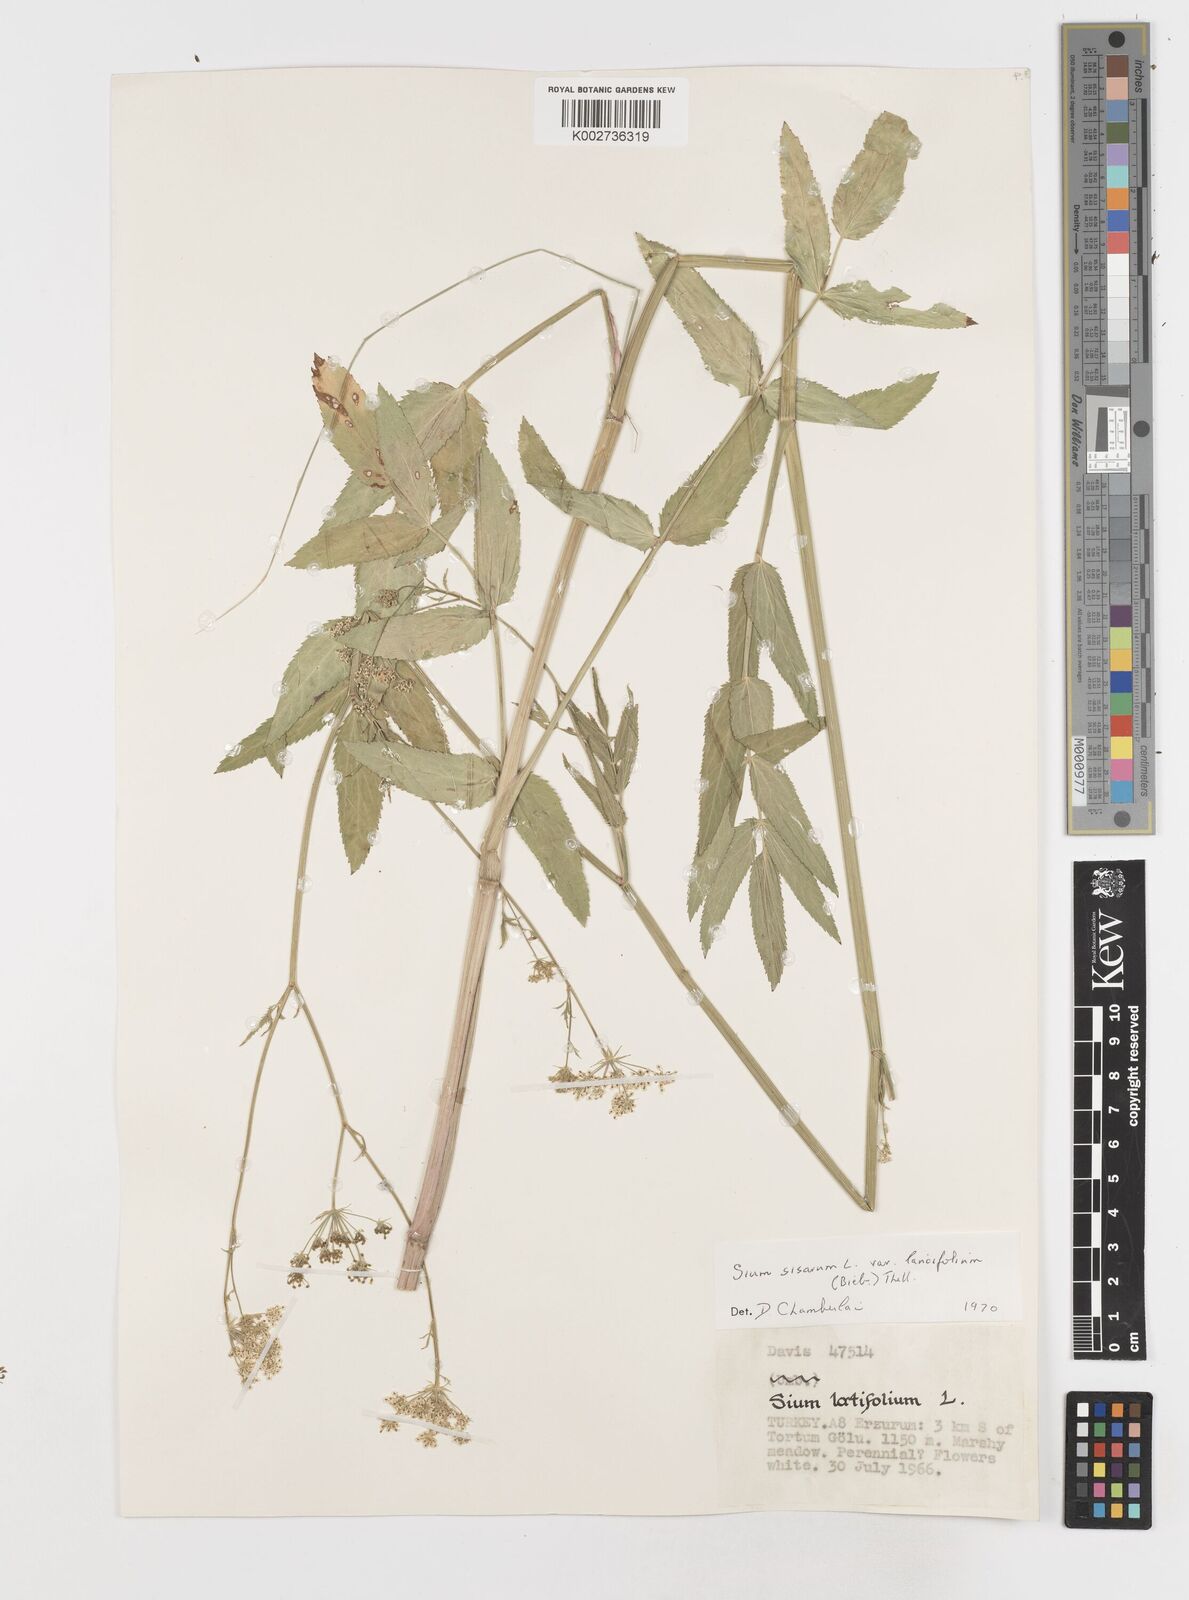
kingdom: Plantae
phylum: Tracheophyta
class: Magnoliopsida
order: Apiales
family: Apiaceae
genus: Sium
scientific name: Sium sisarum
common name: Skirret
